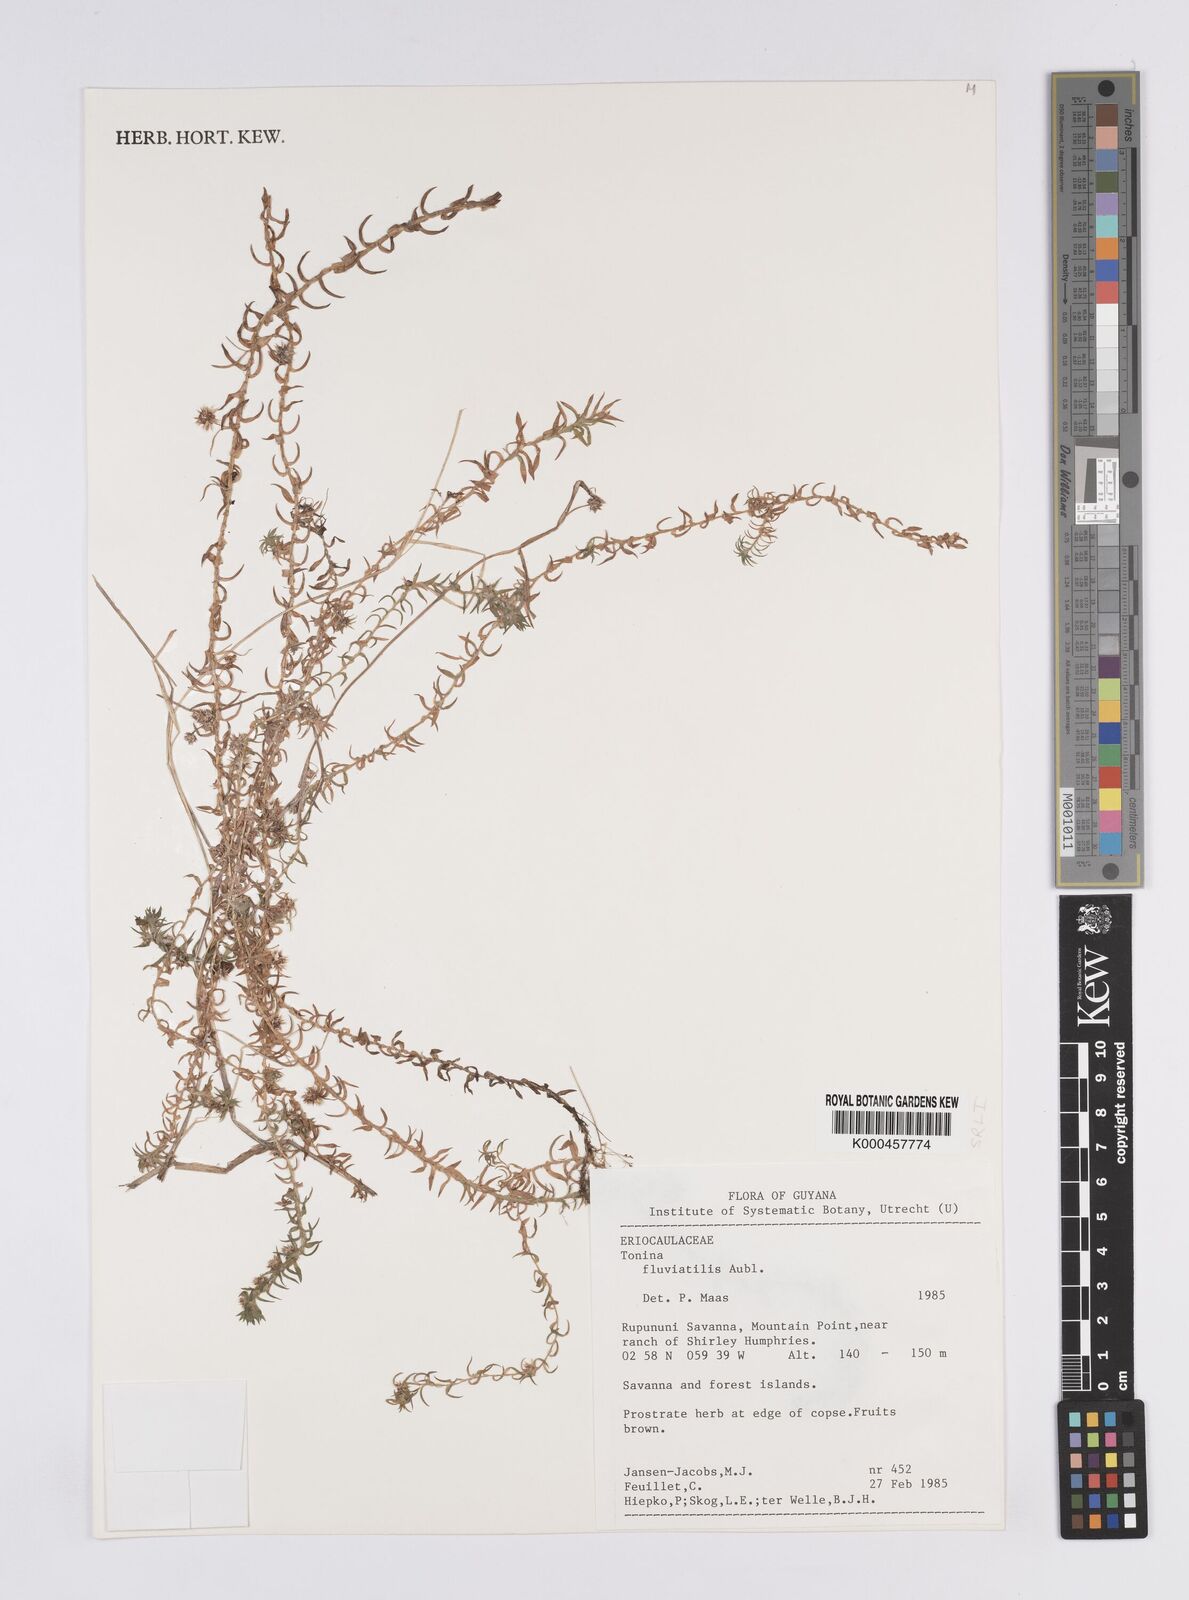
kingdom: Plantae
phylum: Tracheophyta
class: Liliopsida
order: Poales
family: Eriocaulaceae
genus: Paepalanthus
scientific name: Paepalanthus fluviatilis
